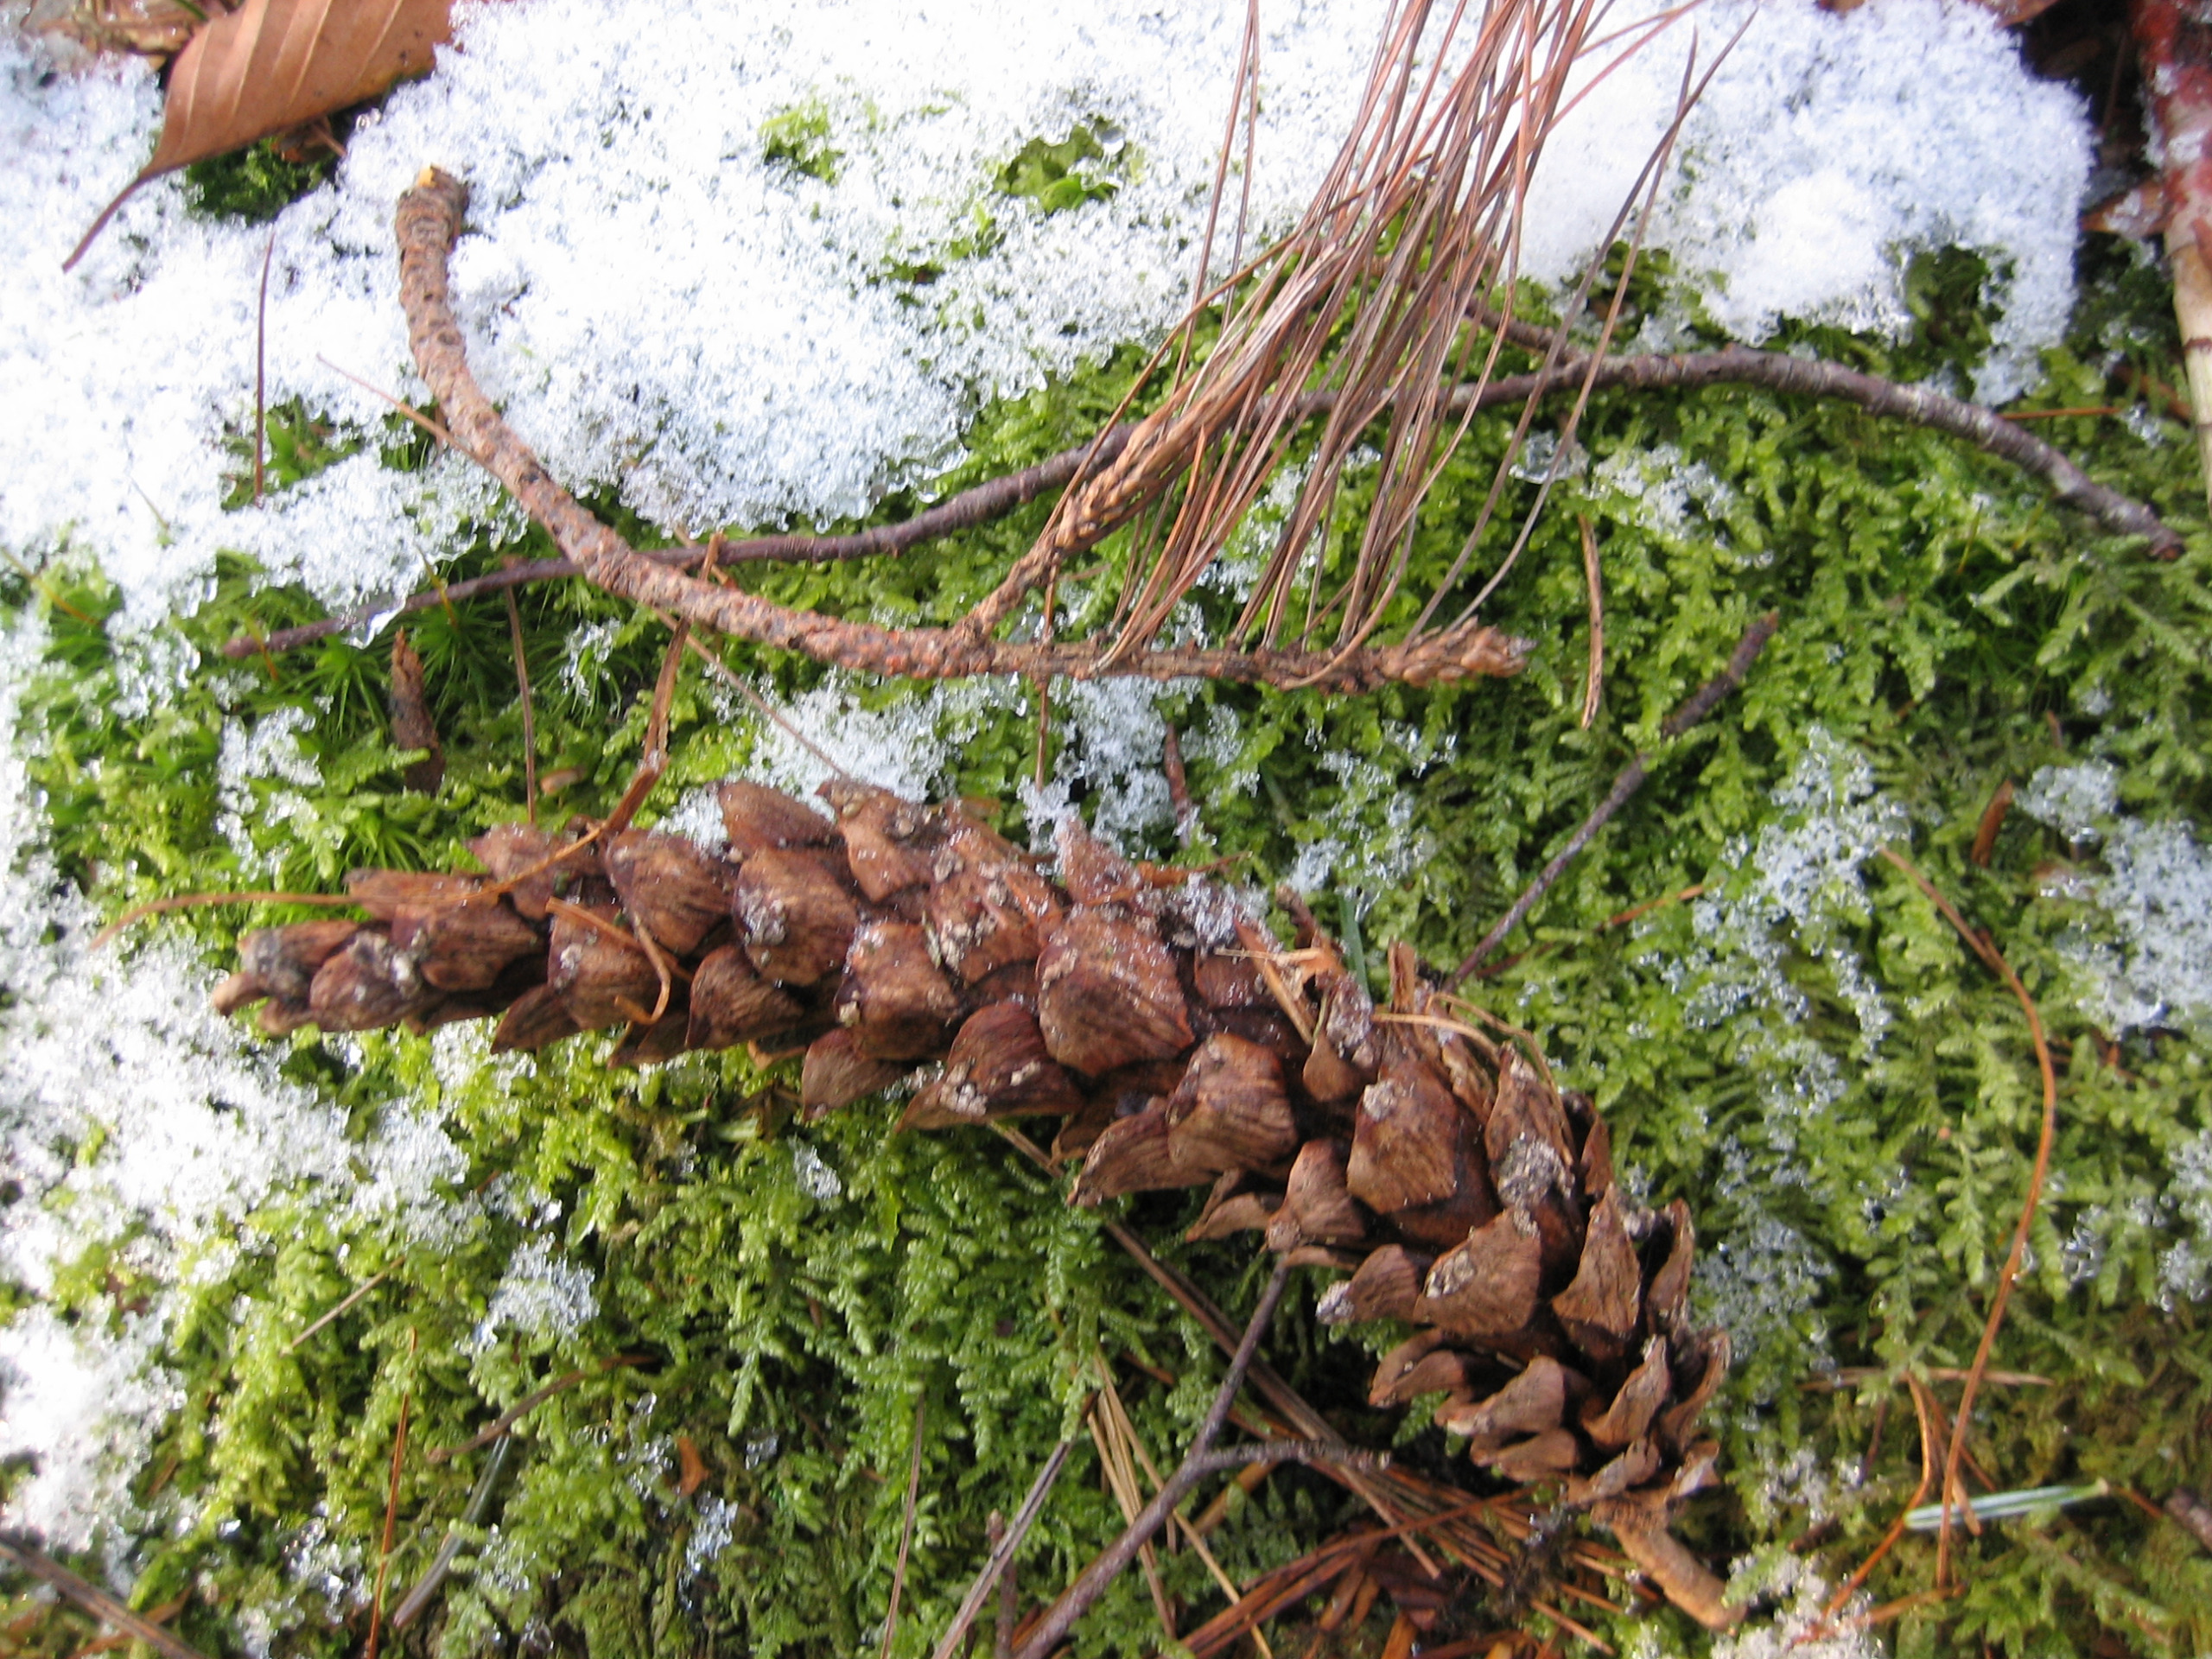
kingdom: Plantae
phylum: Tracheophyta
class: Pinopsida
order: Pinales
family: Pinaceae
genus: Pinus
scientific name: Pinus strobus
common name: Weymouths-fyr
